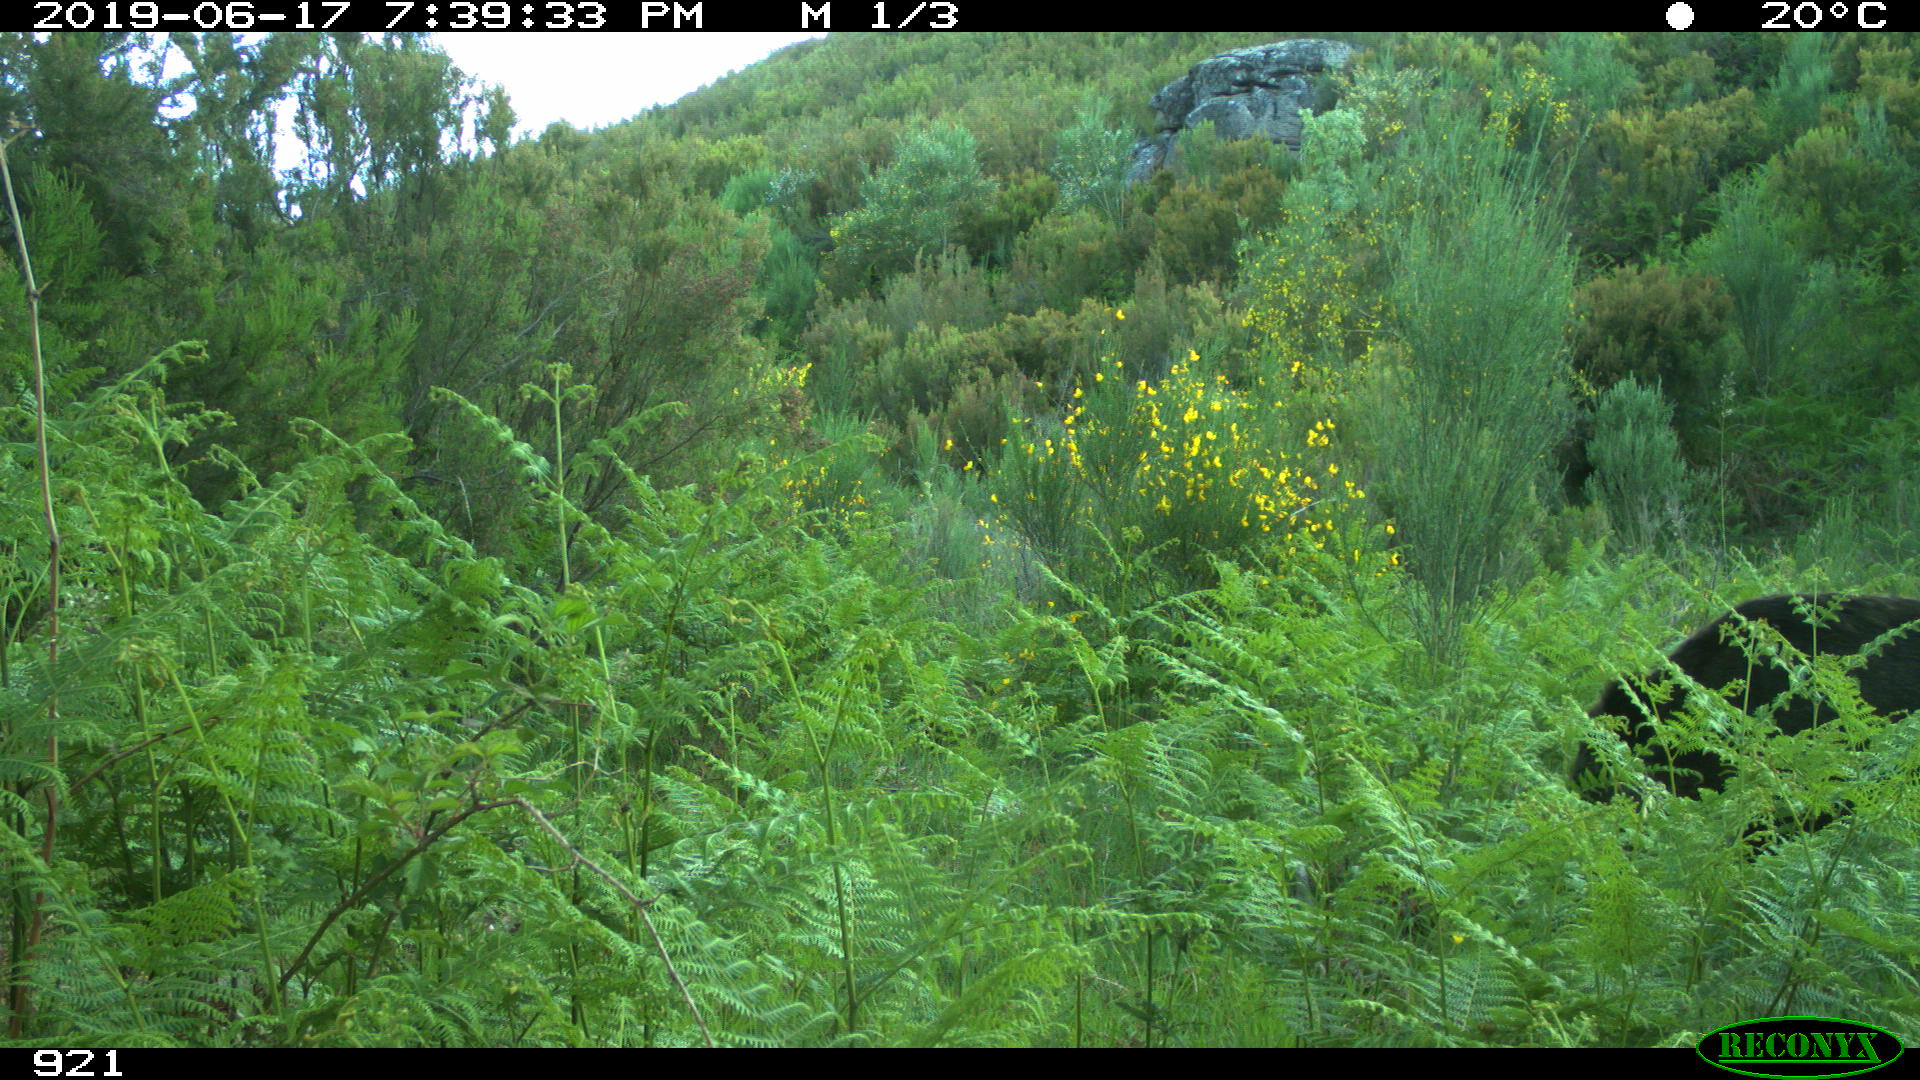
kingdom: Animalia
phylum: Chordata
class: Mammalia
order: Artiodactyla
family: Suidae
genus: Sus
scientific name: Sus scrofa
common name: Wild boar
